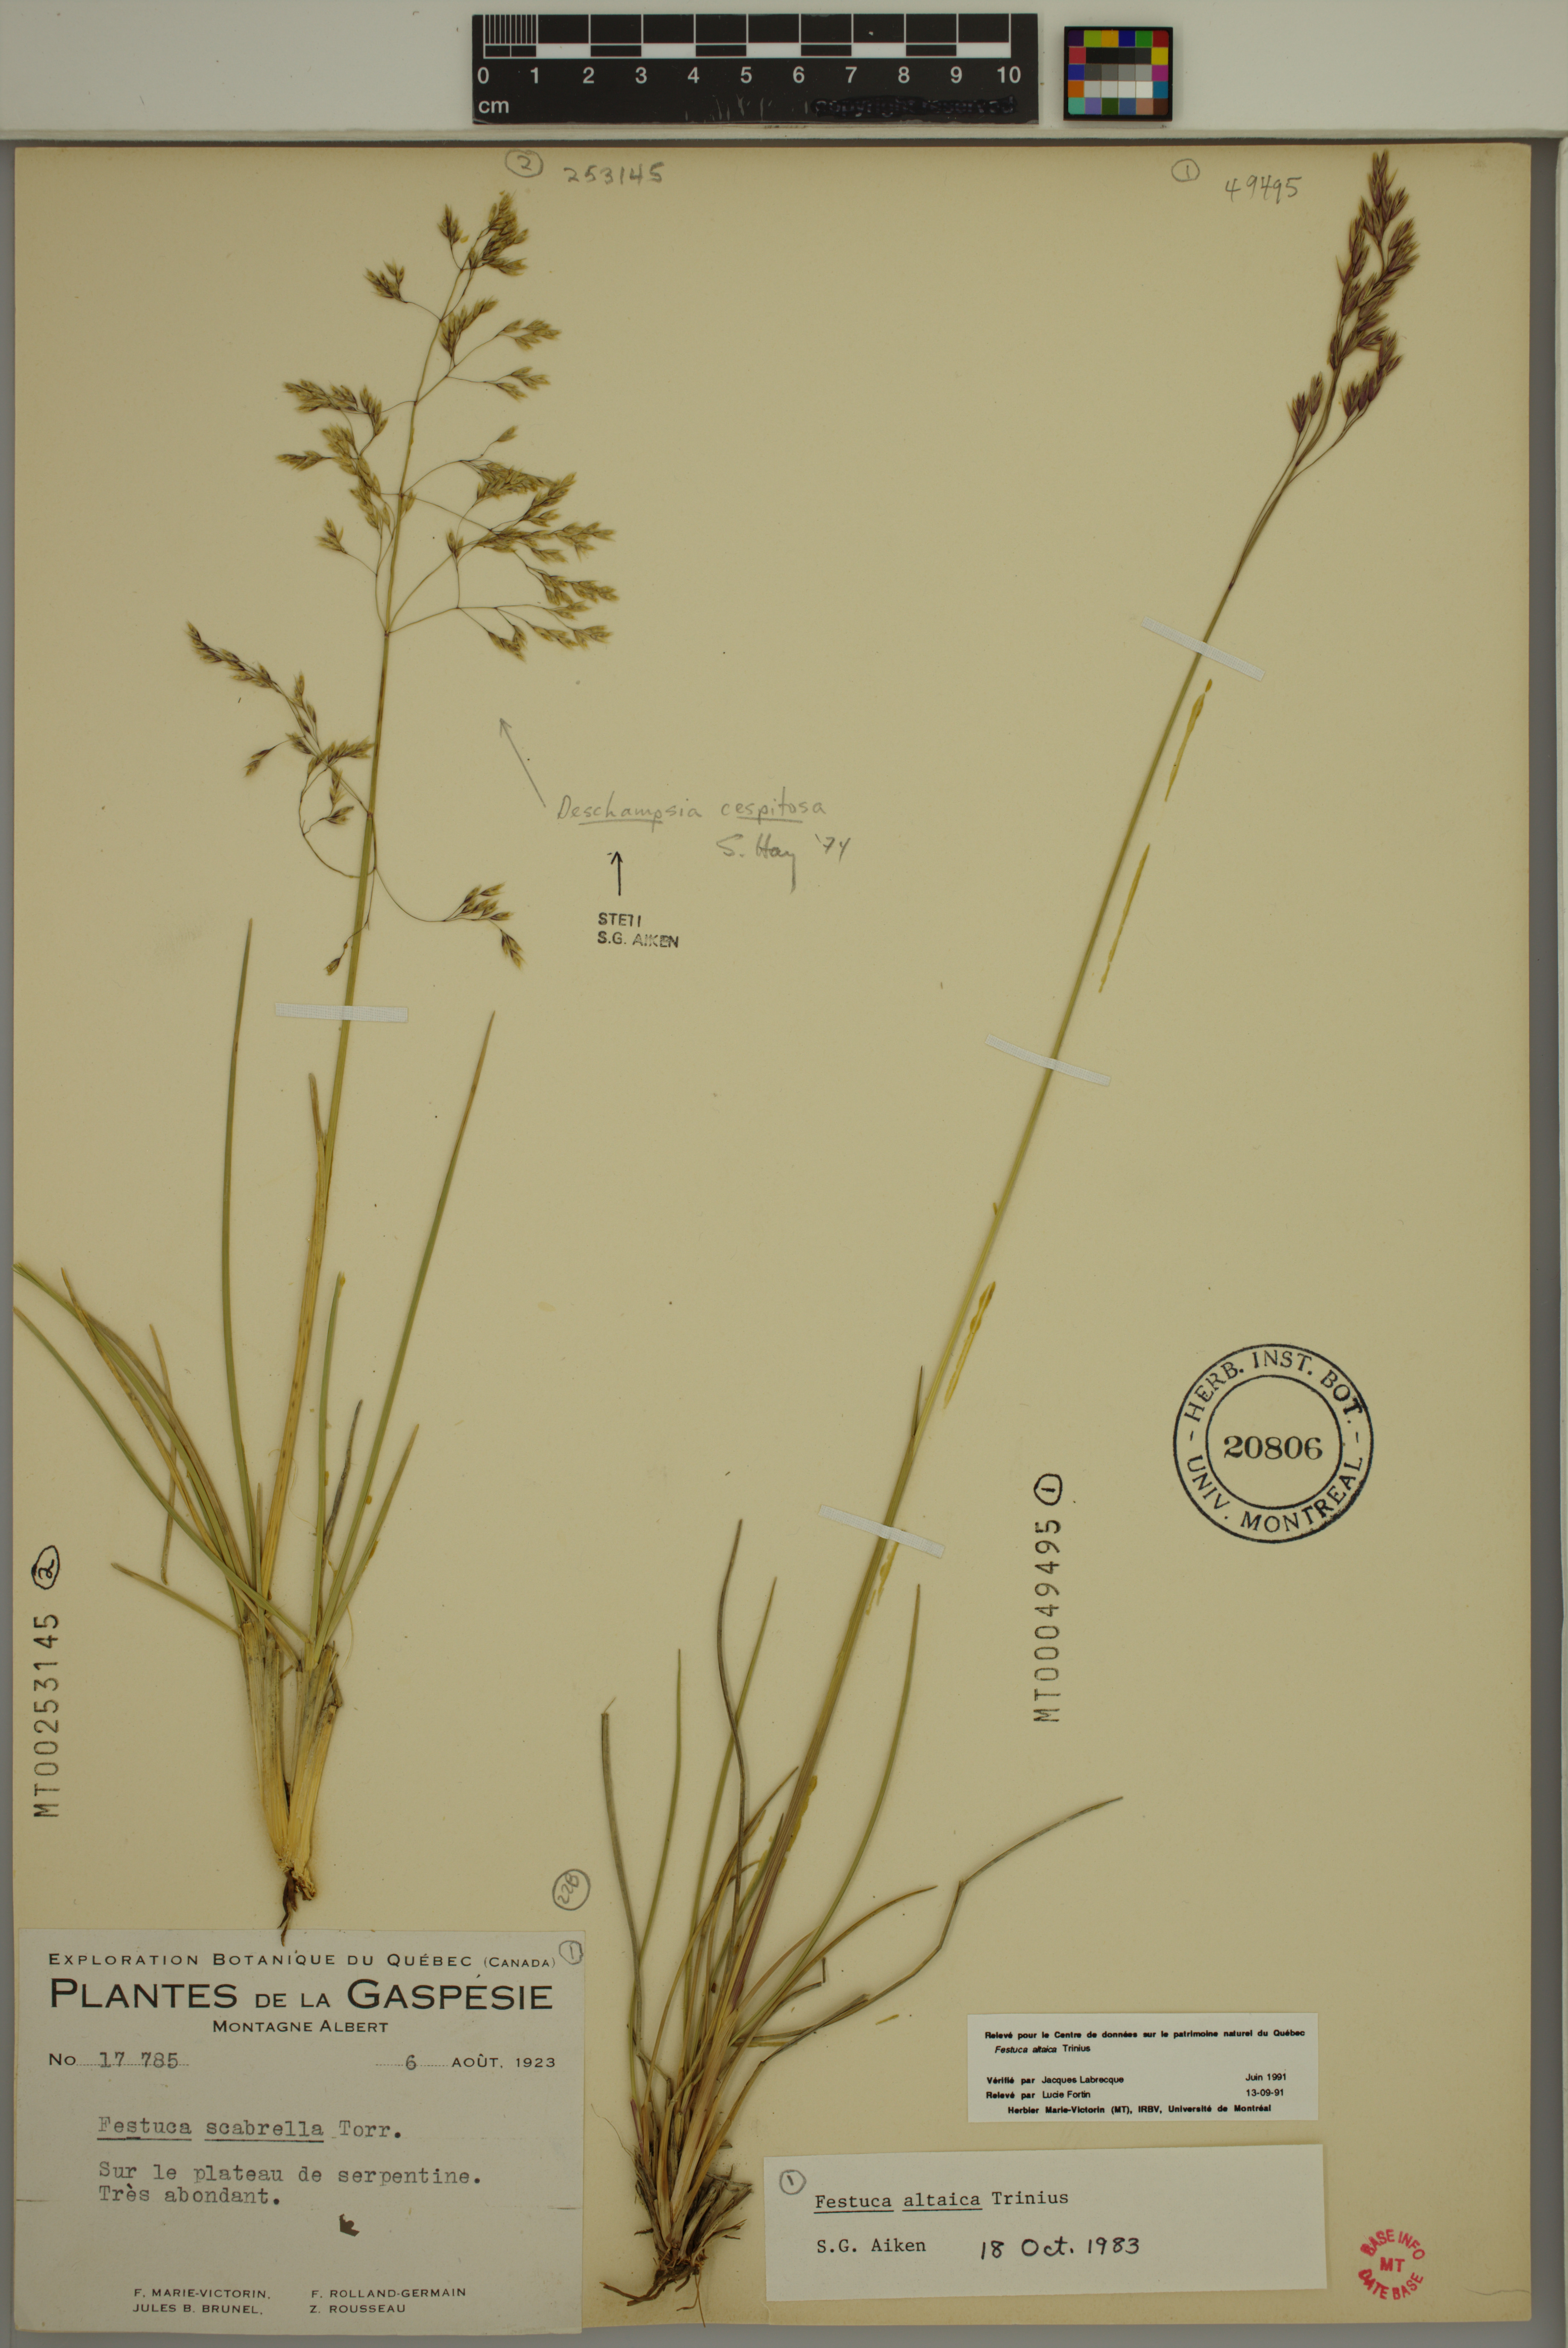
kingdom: Plantae
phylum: Tracheophyta
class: Liliopsida
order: Poales
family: Poaceae
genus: Festuca
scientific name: Festuca altaica
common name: Northern rough fescue
